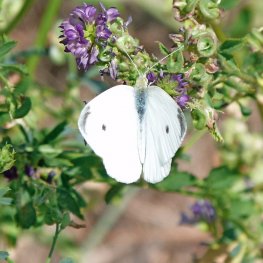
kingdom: Animalia
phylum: Arthropoda
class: Insecta
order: Lepidoptera
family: Pieridae
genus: Pieris
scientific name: Pieris rapae
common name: Cabbage White
